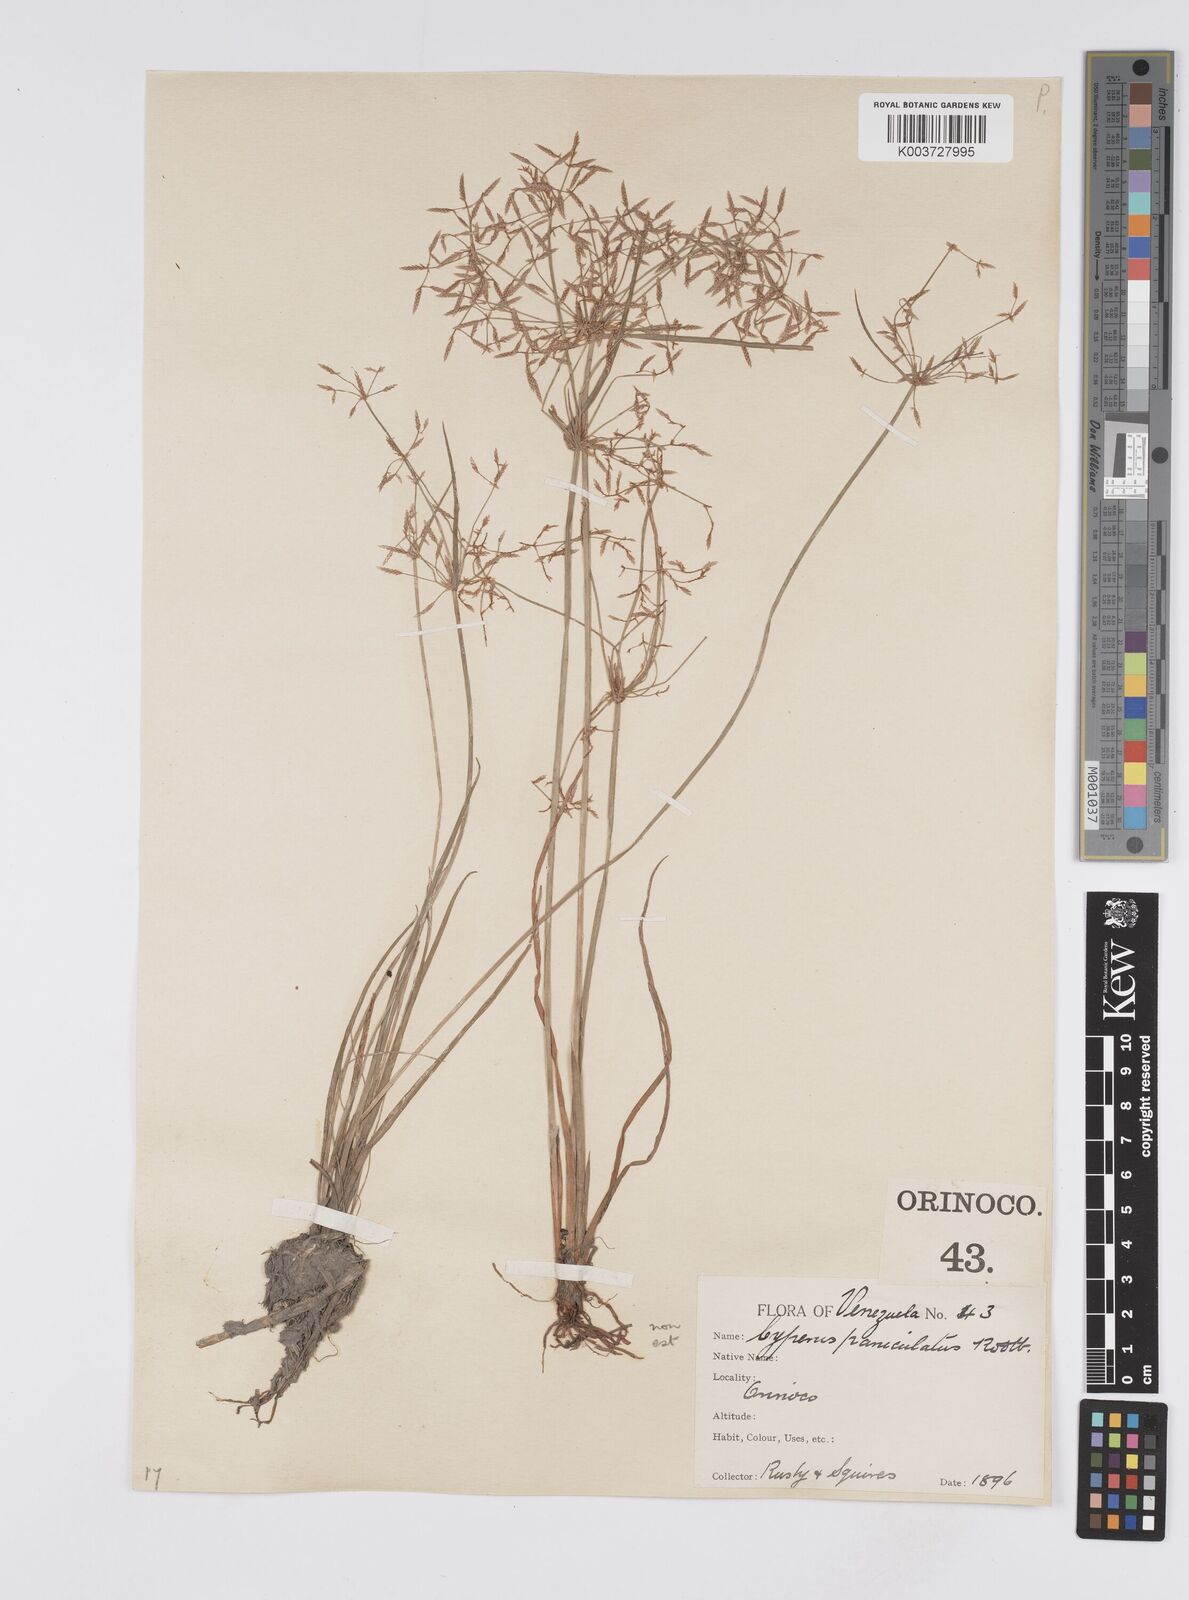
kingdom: Plantae
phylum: Tracheophyta
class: Liliopsida
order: Poales
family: Cyperaceae
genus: Cyperus
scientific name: Cyperus haspan
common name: Haspan flatsedge
